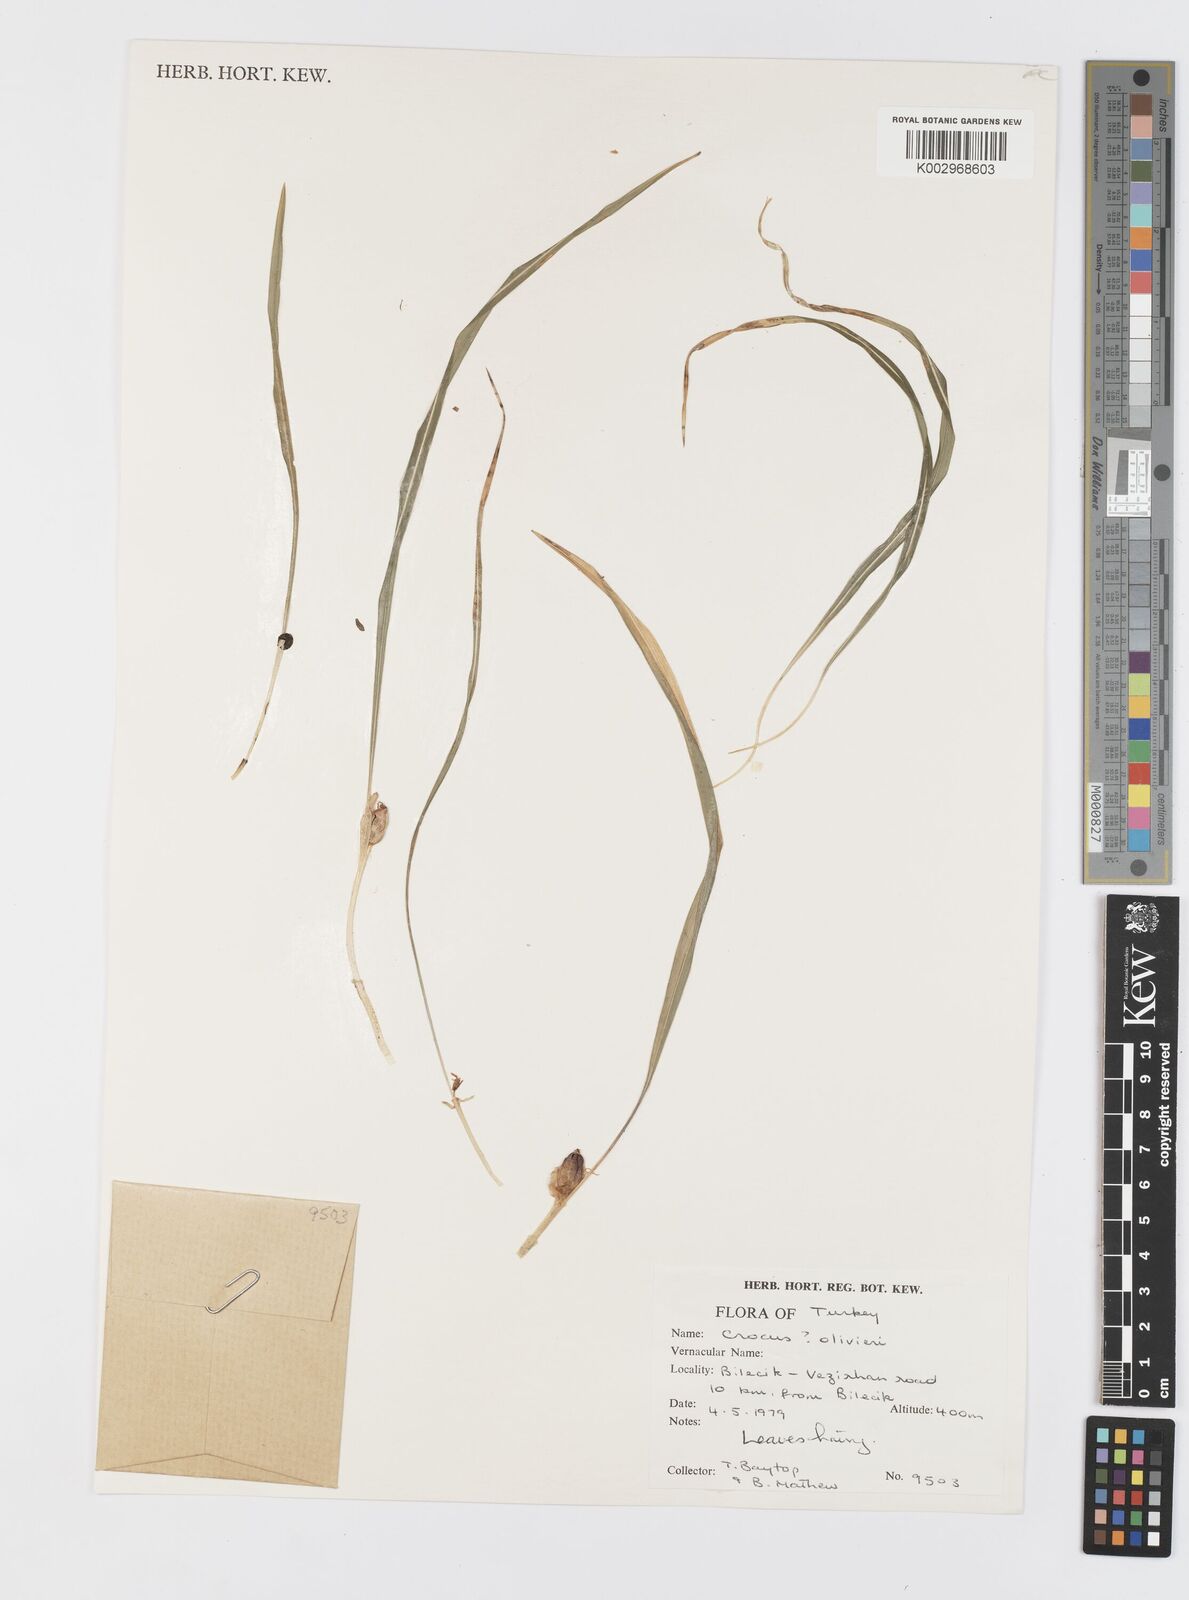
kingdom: Plantae
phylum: Tracheophyta
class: Liliopsida
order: Asparagales
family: Iridaceae
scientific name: Iridaceae
